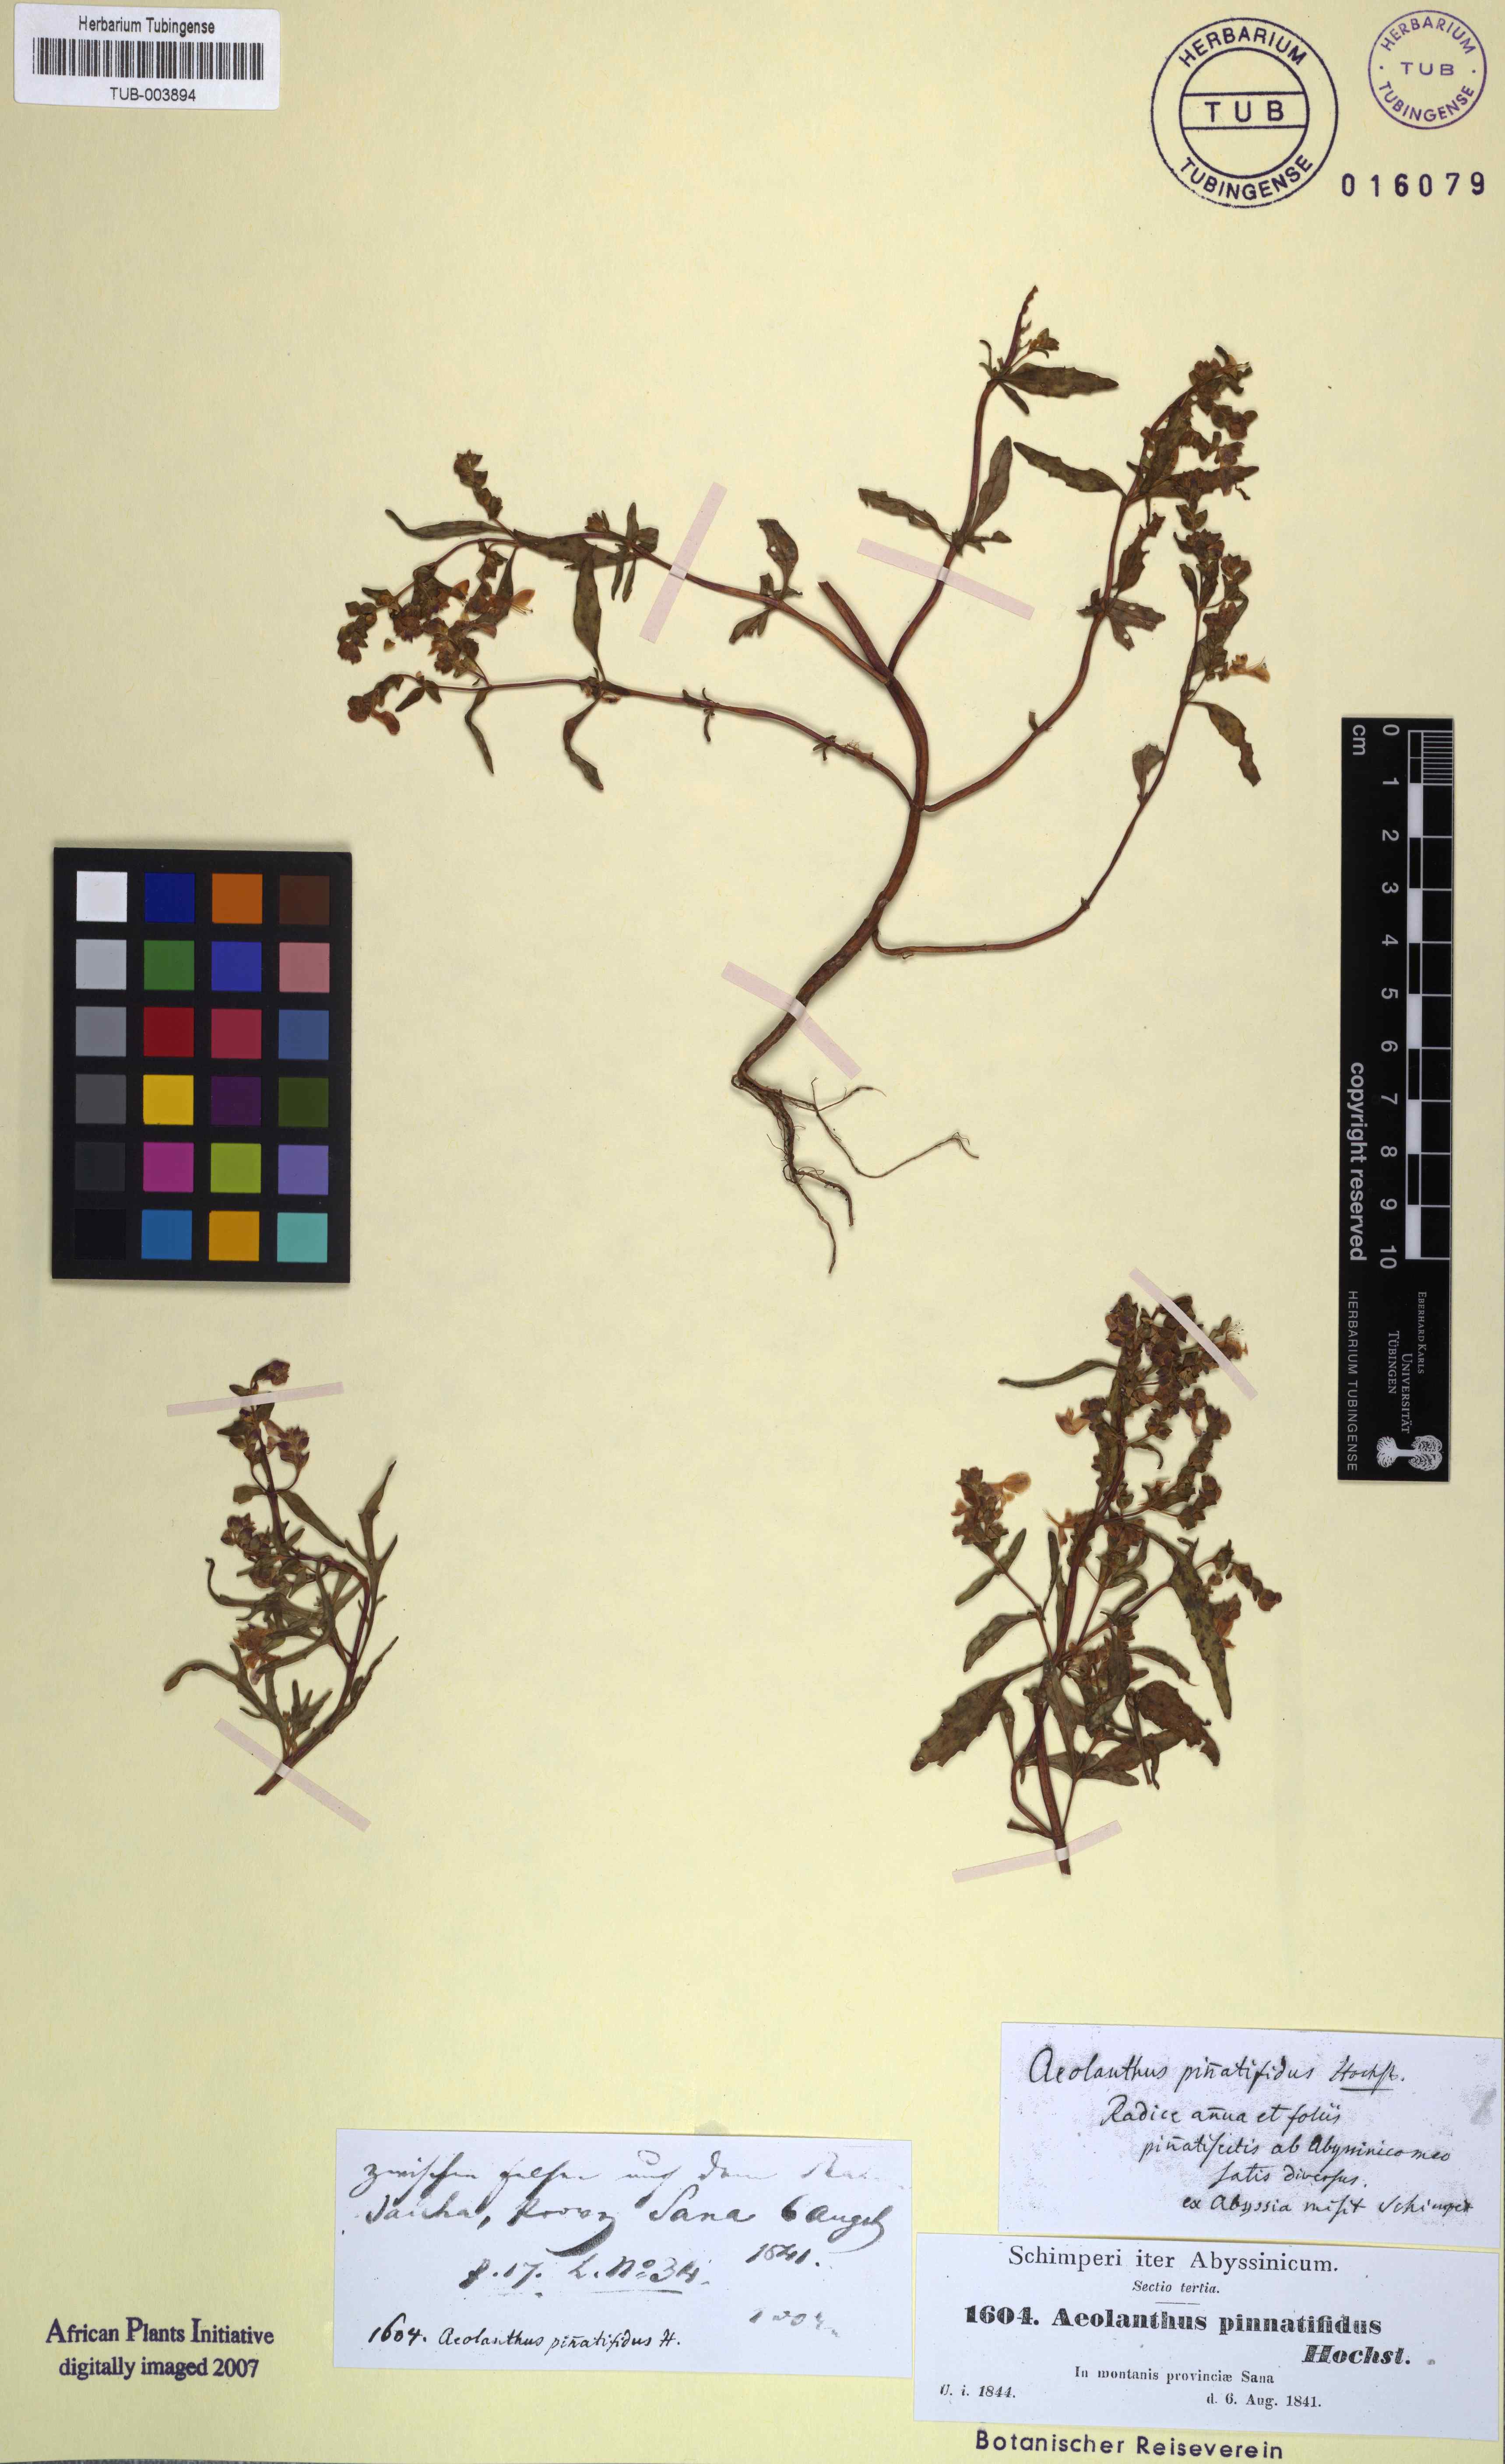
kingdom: Plantae
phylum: Tracheophyta
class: Magnoliopsida
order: Lamiales
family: Lamiaceae
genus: Aeollanthus
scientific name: Aeollanthus pinnatifidus
